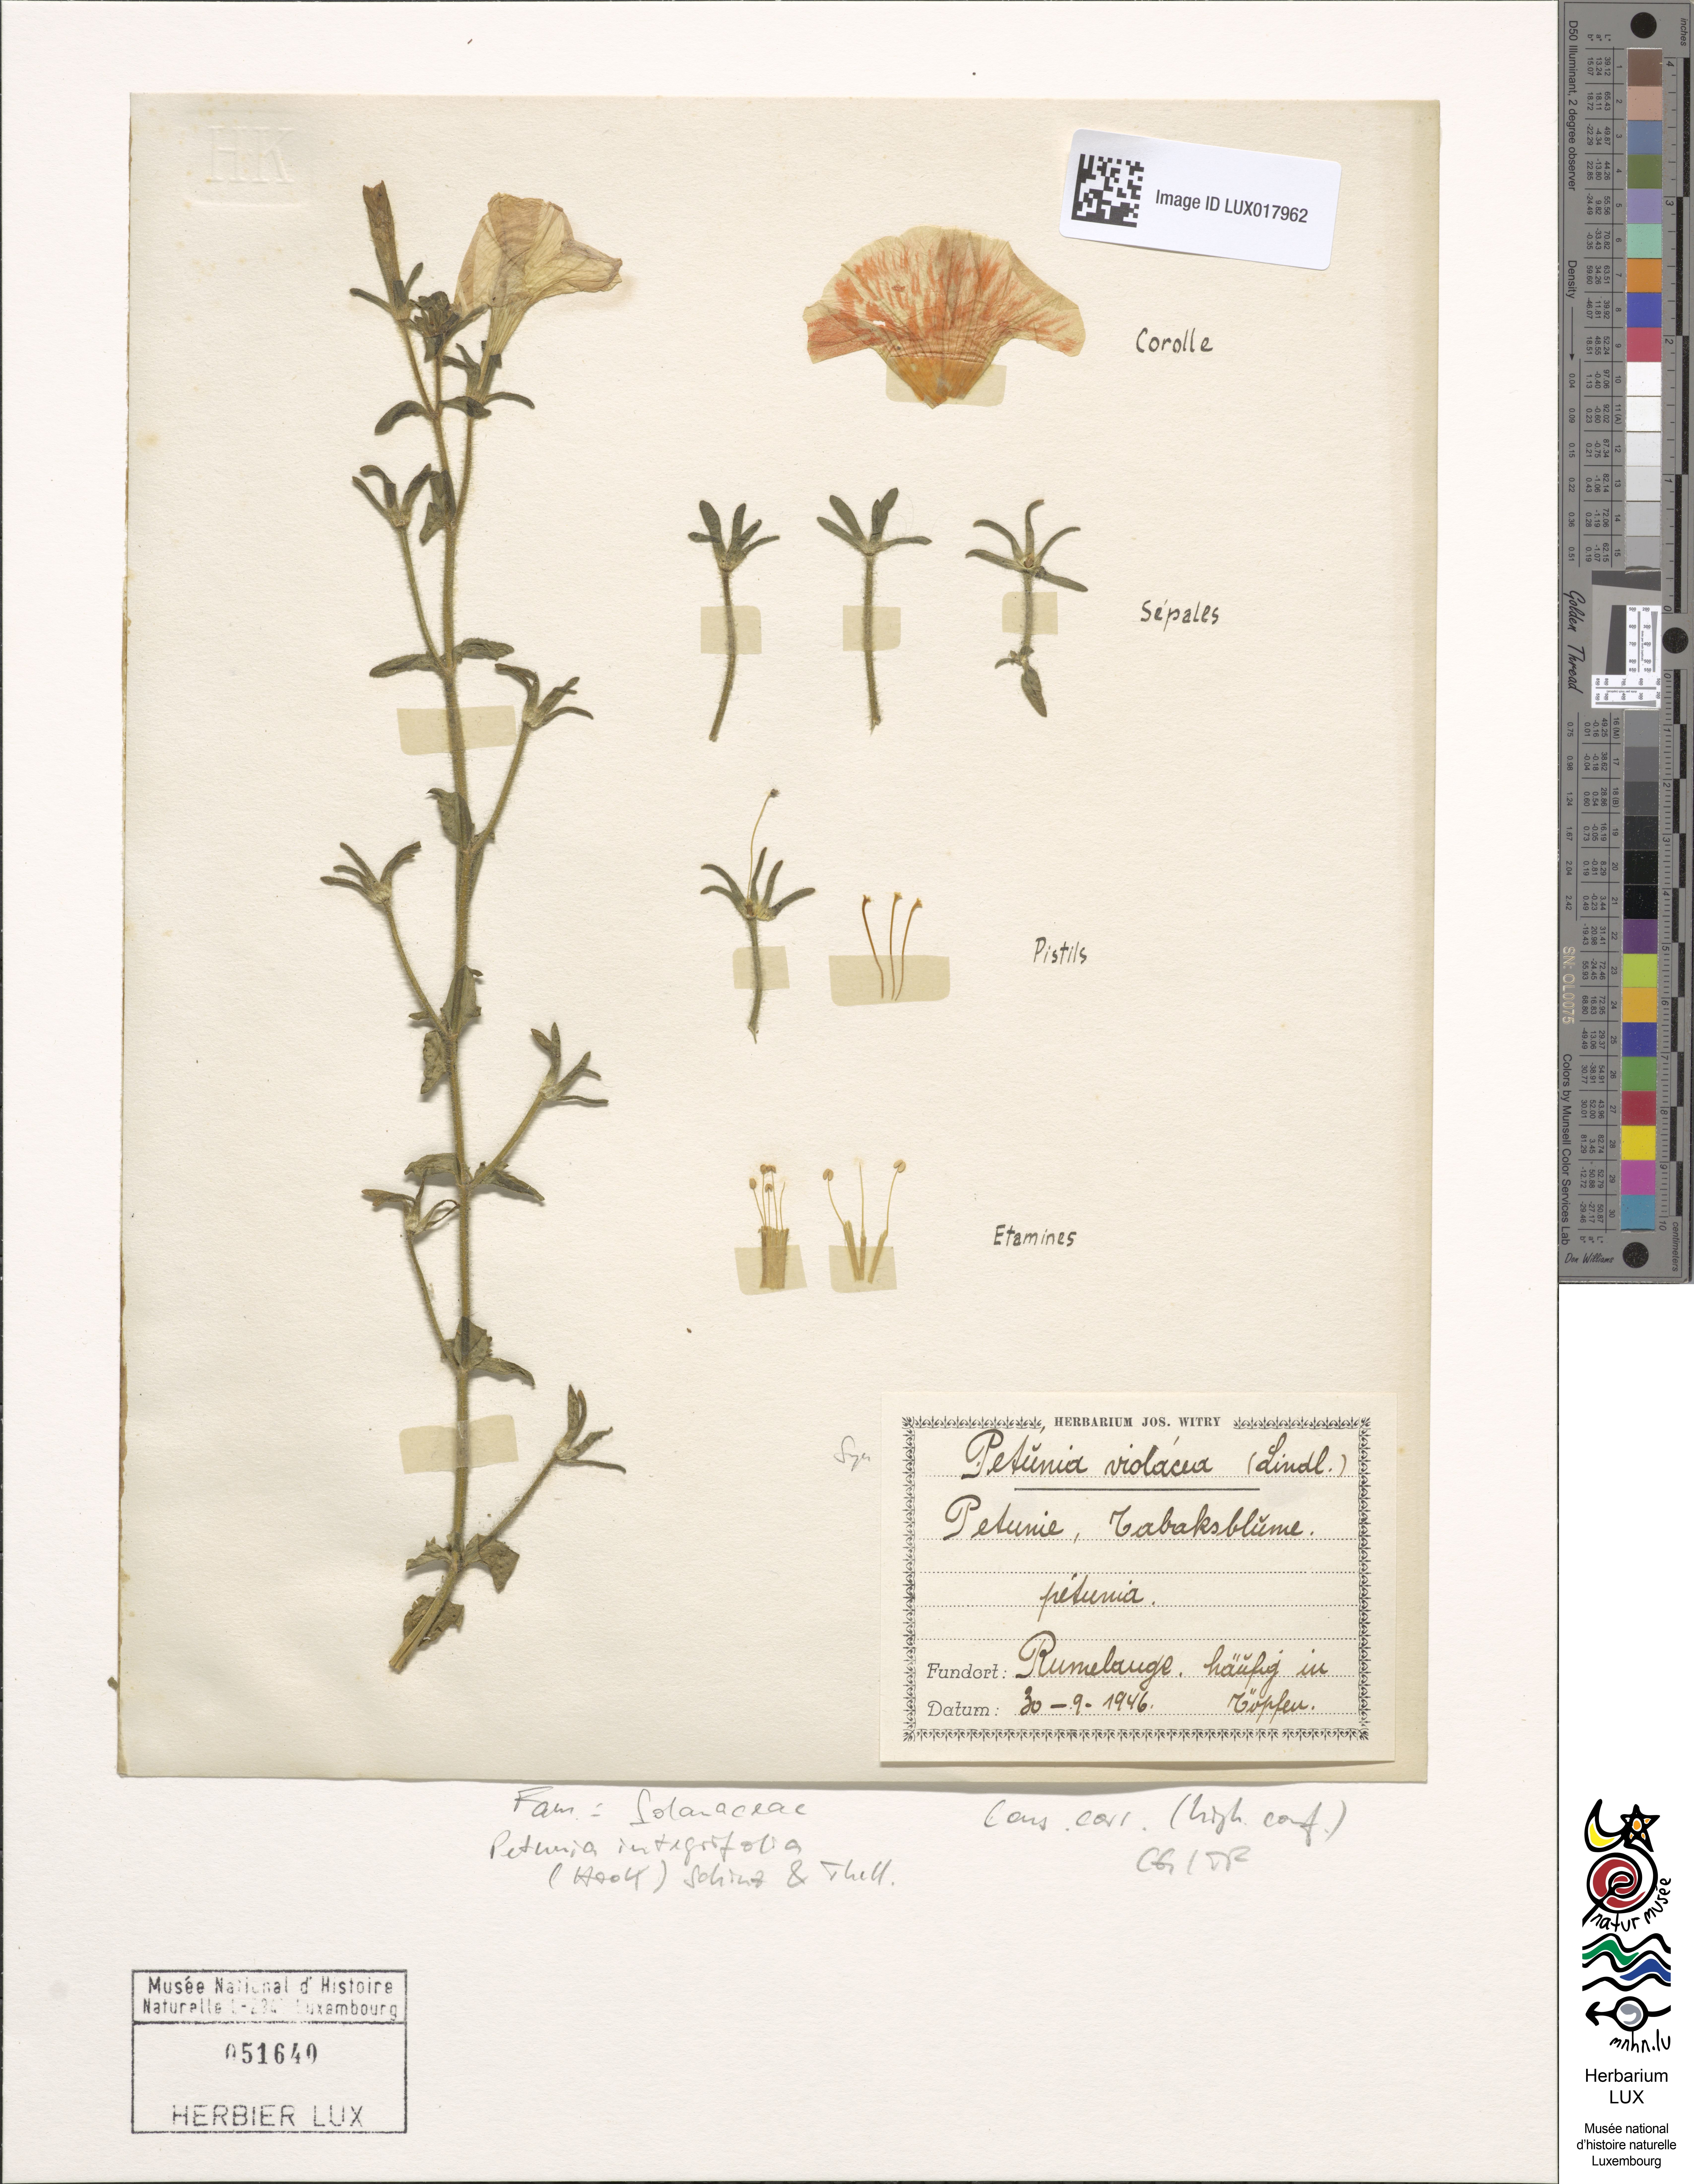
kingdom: Plantae
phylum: Tracheophyta
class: Magnoliopsida
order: Solanales
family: Solanaceae
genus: Petunia
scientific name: Petunia integrifolia
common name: Violet-flower petunia
